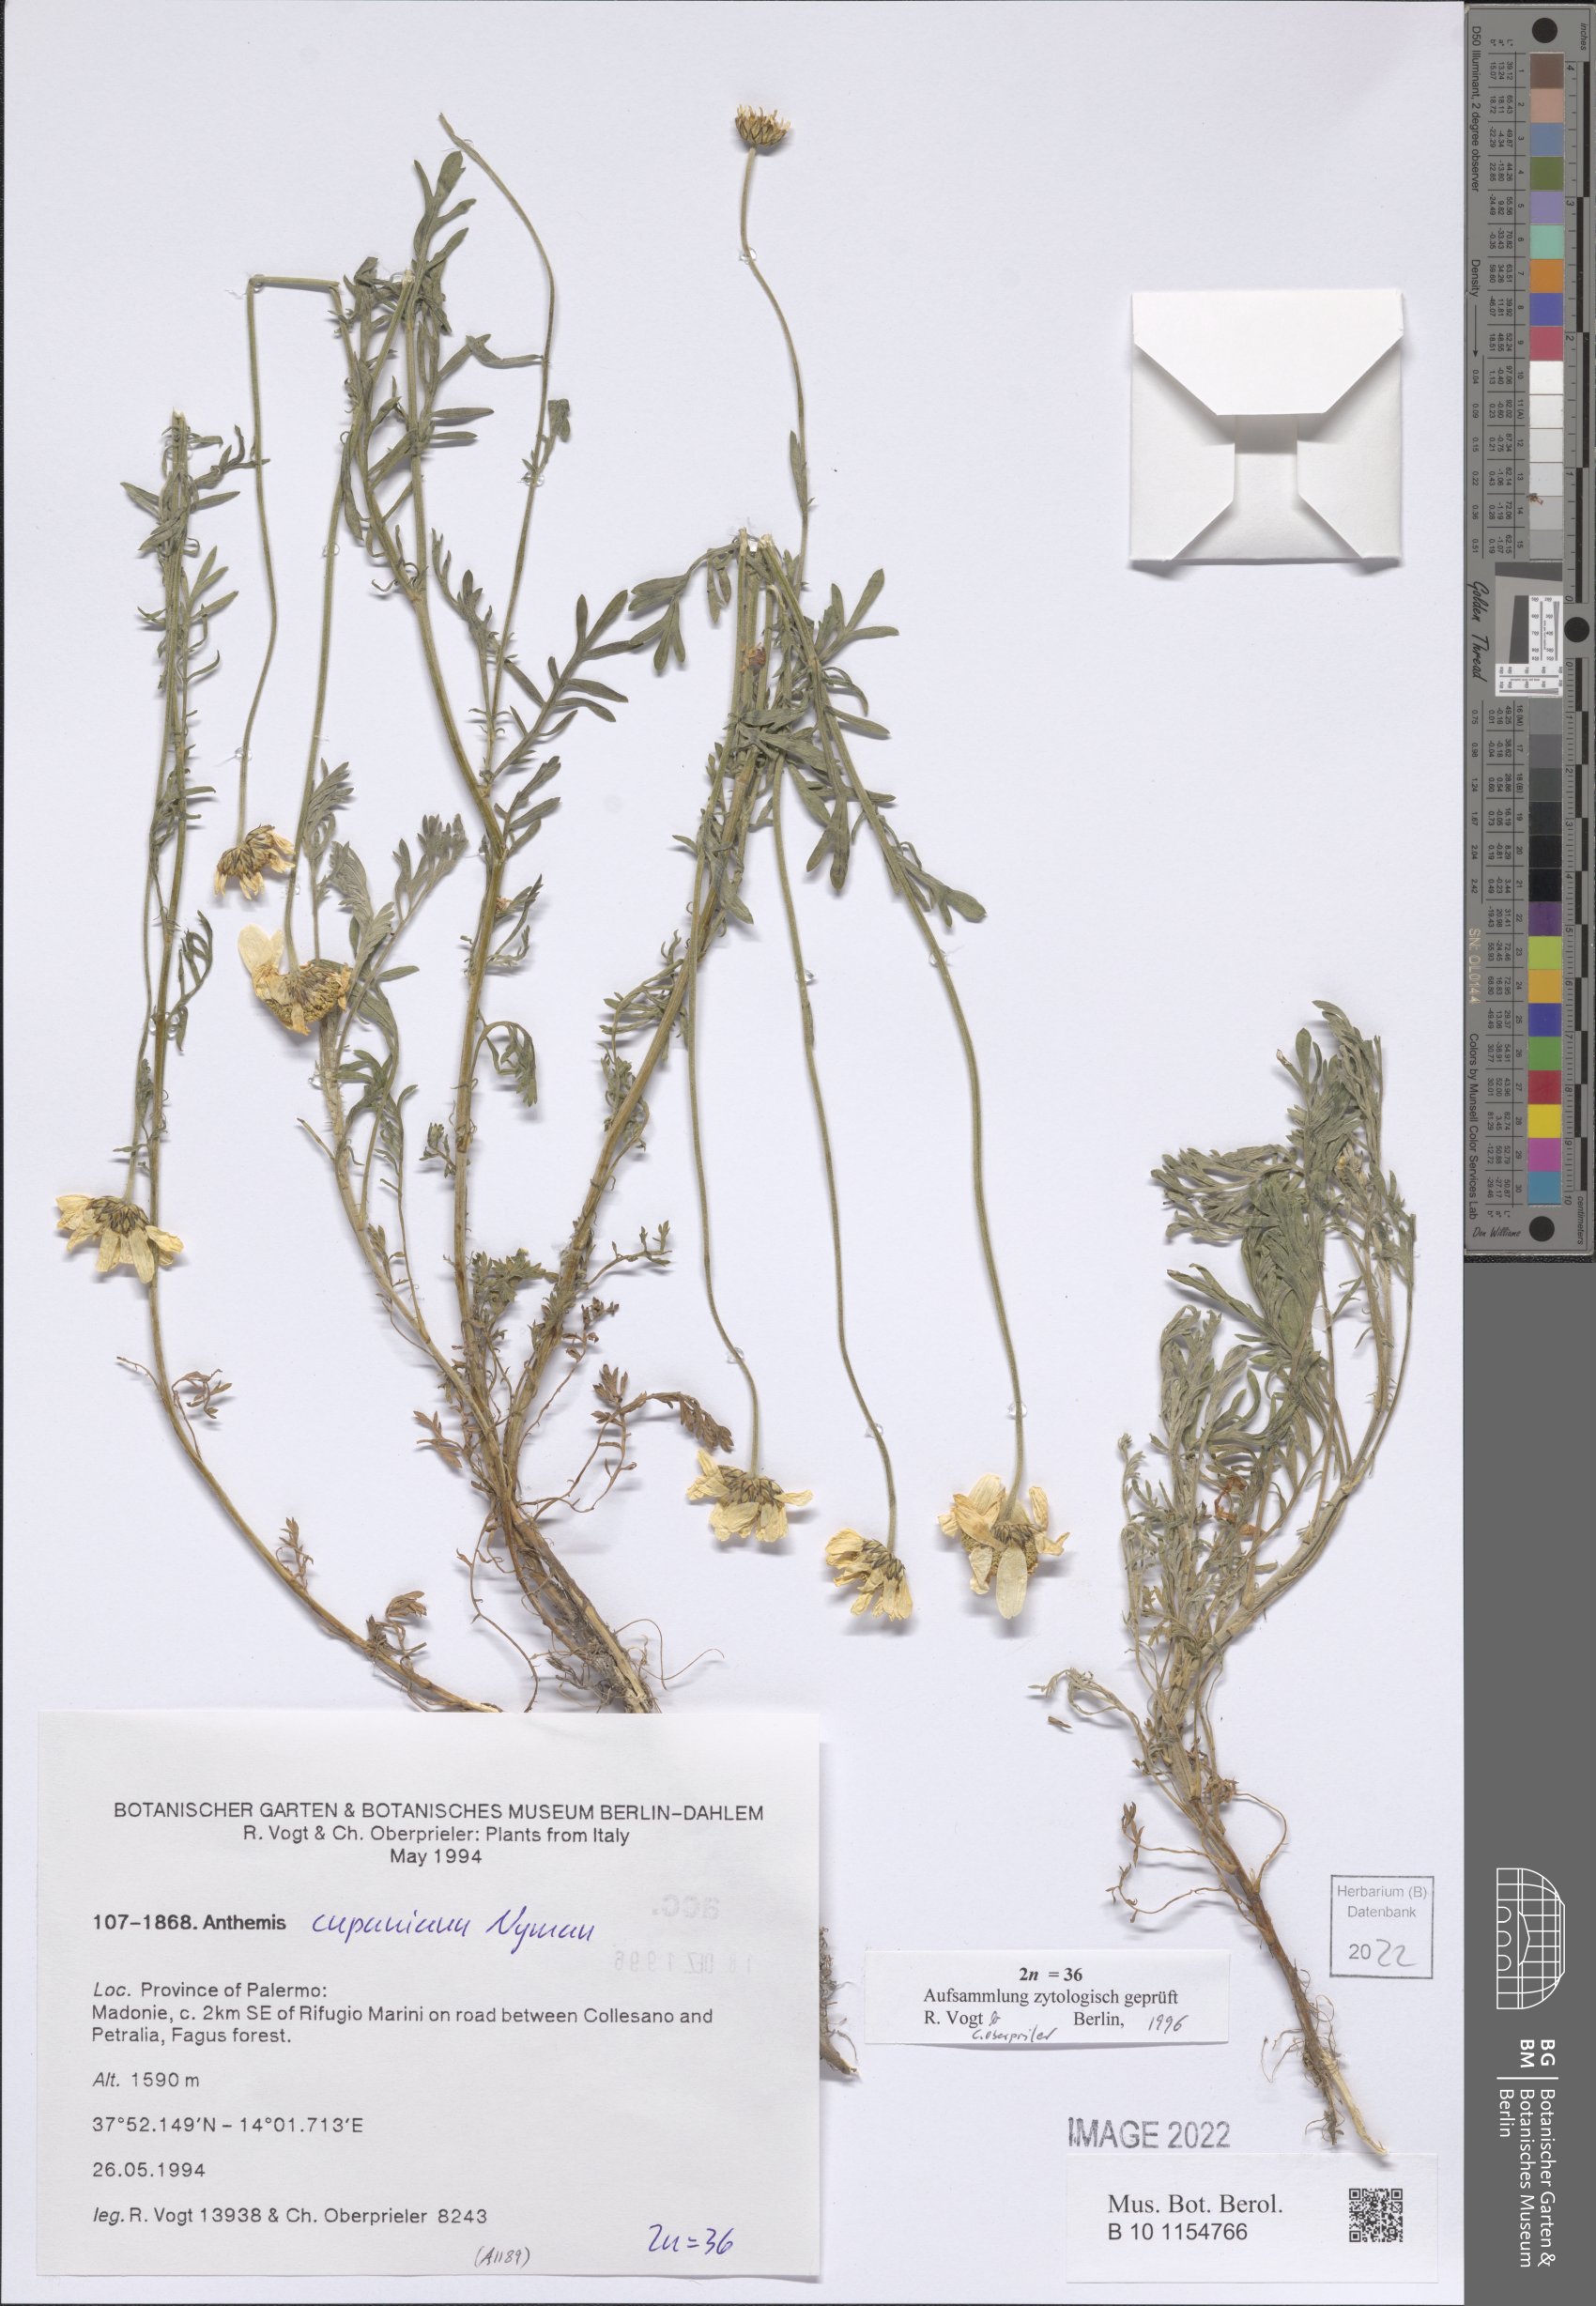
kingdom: Plantae
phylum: Tracheophyta
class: Magnoliopsida
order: Asterales
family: Asteraceae
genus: Anthemis
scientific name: Anthemis cupaniana
